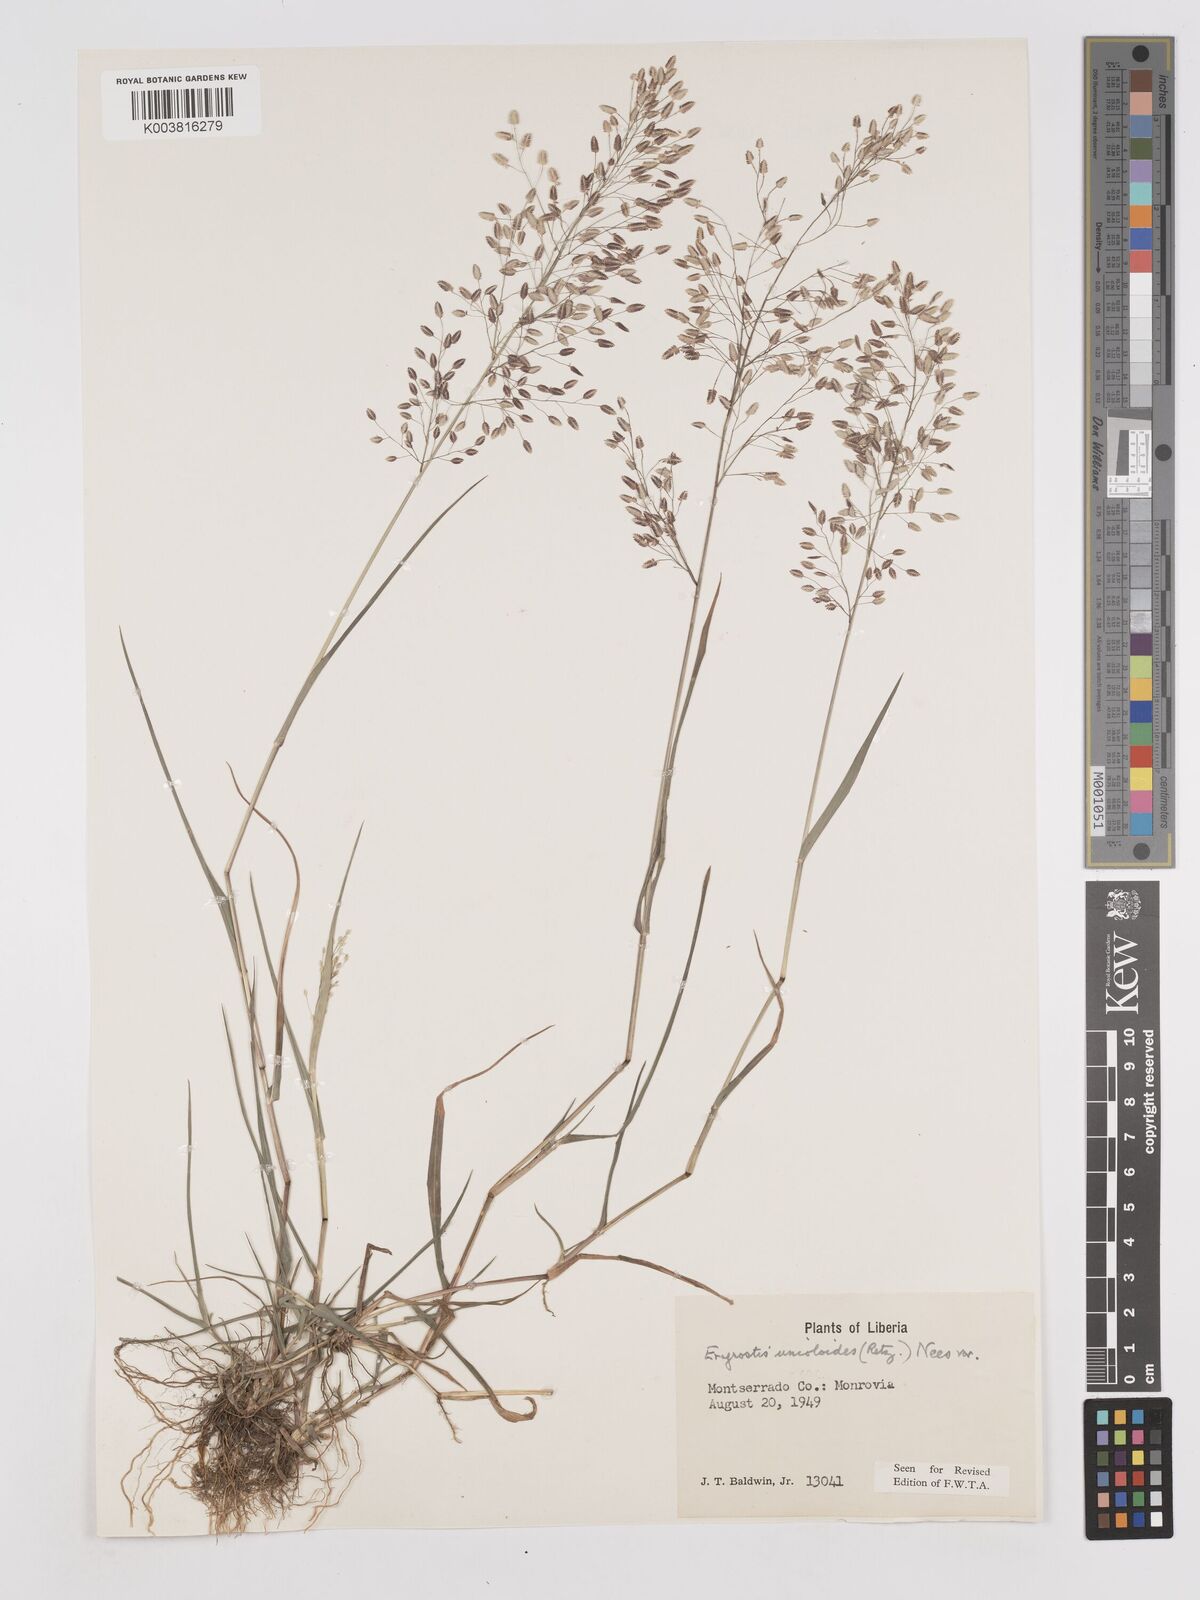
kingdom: Plantae
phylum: Tracheophyta
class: Liliopsida
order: Poales
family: Poaceae
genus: Eragrostis
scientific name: Eragrostis unioloides
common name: Chinese lovegrass
